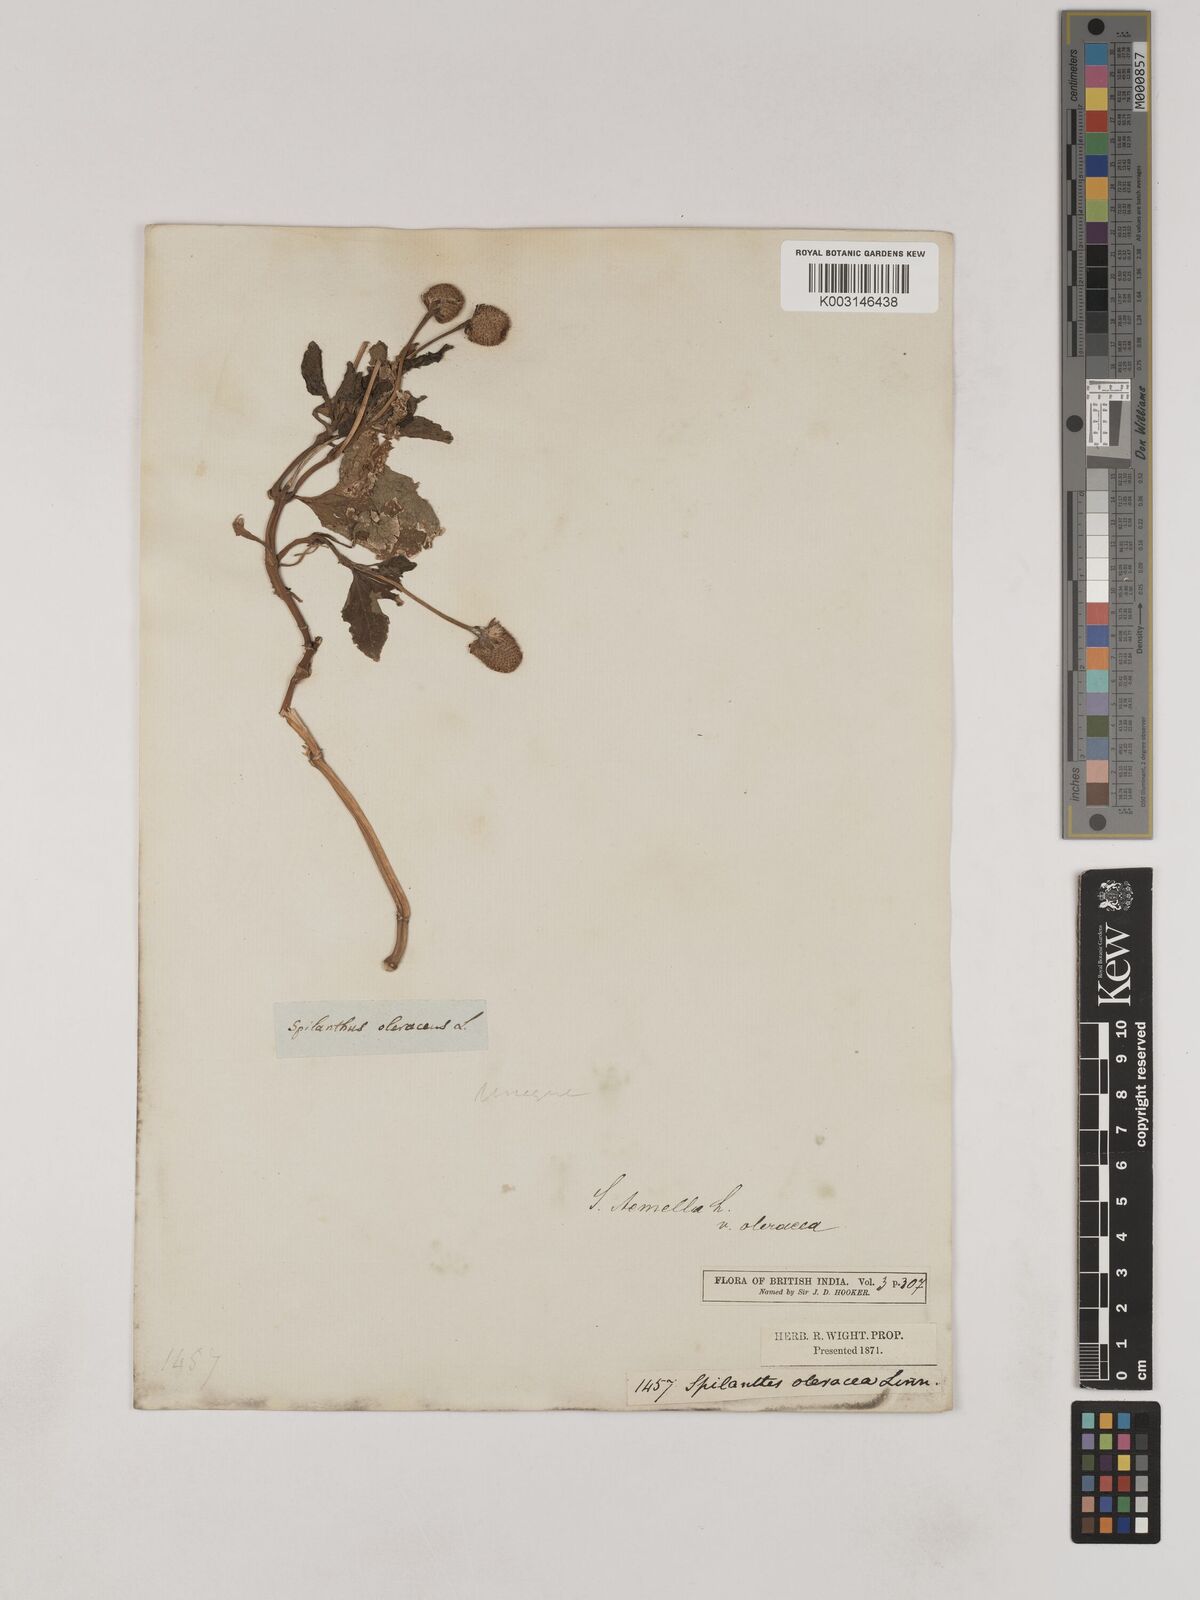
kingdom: Plantae
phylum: Tracheophyta
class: Magnoliopsida
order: Asterales
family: Asteraceae
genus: Acmella
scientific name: Acmella oleracea
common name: Brazilian cress
